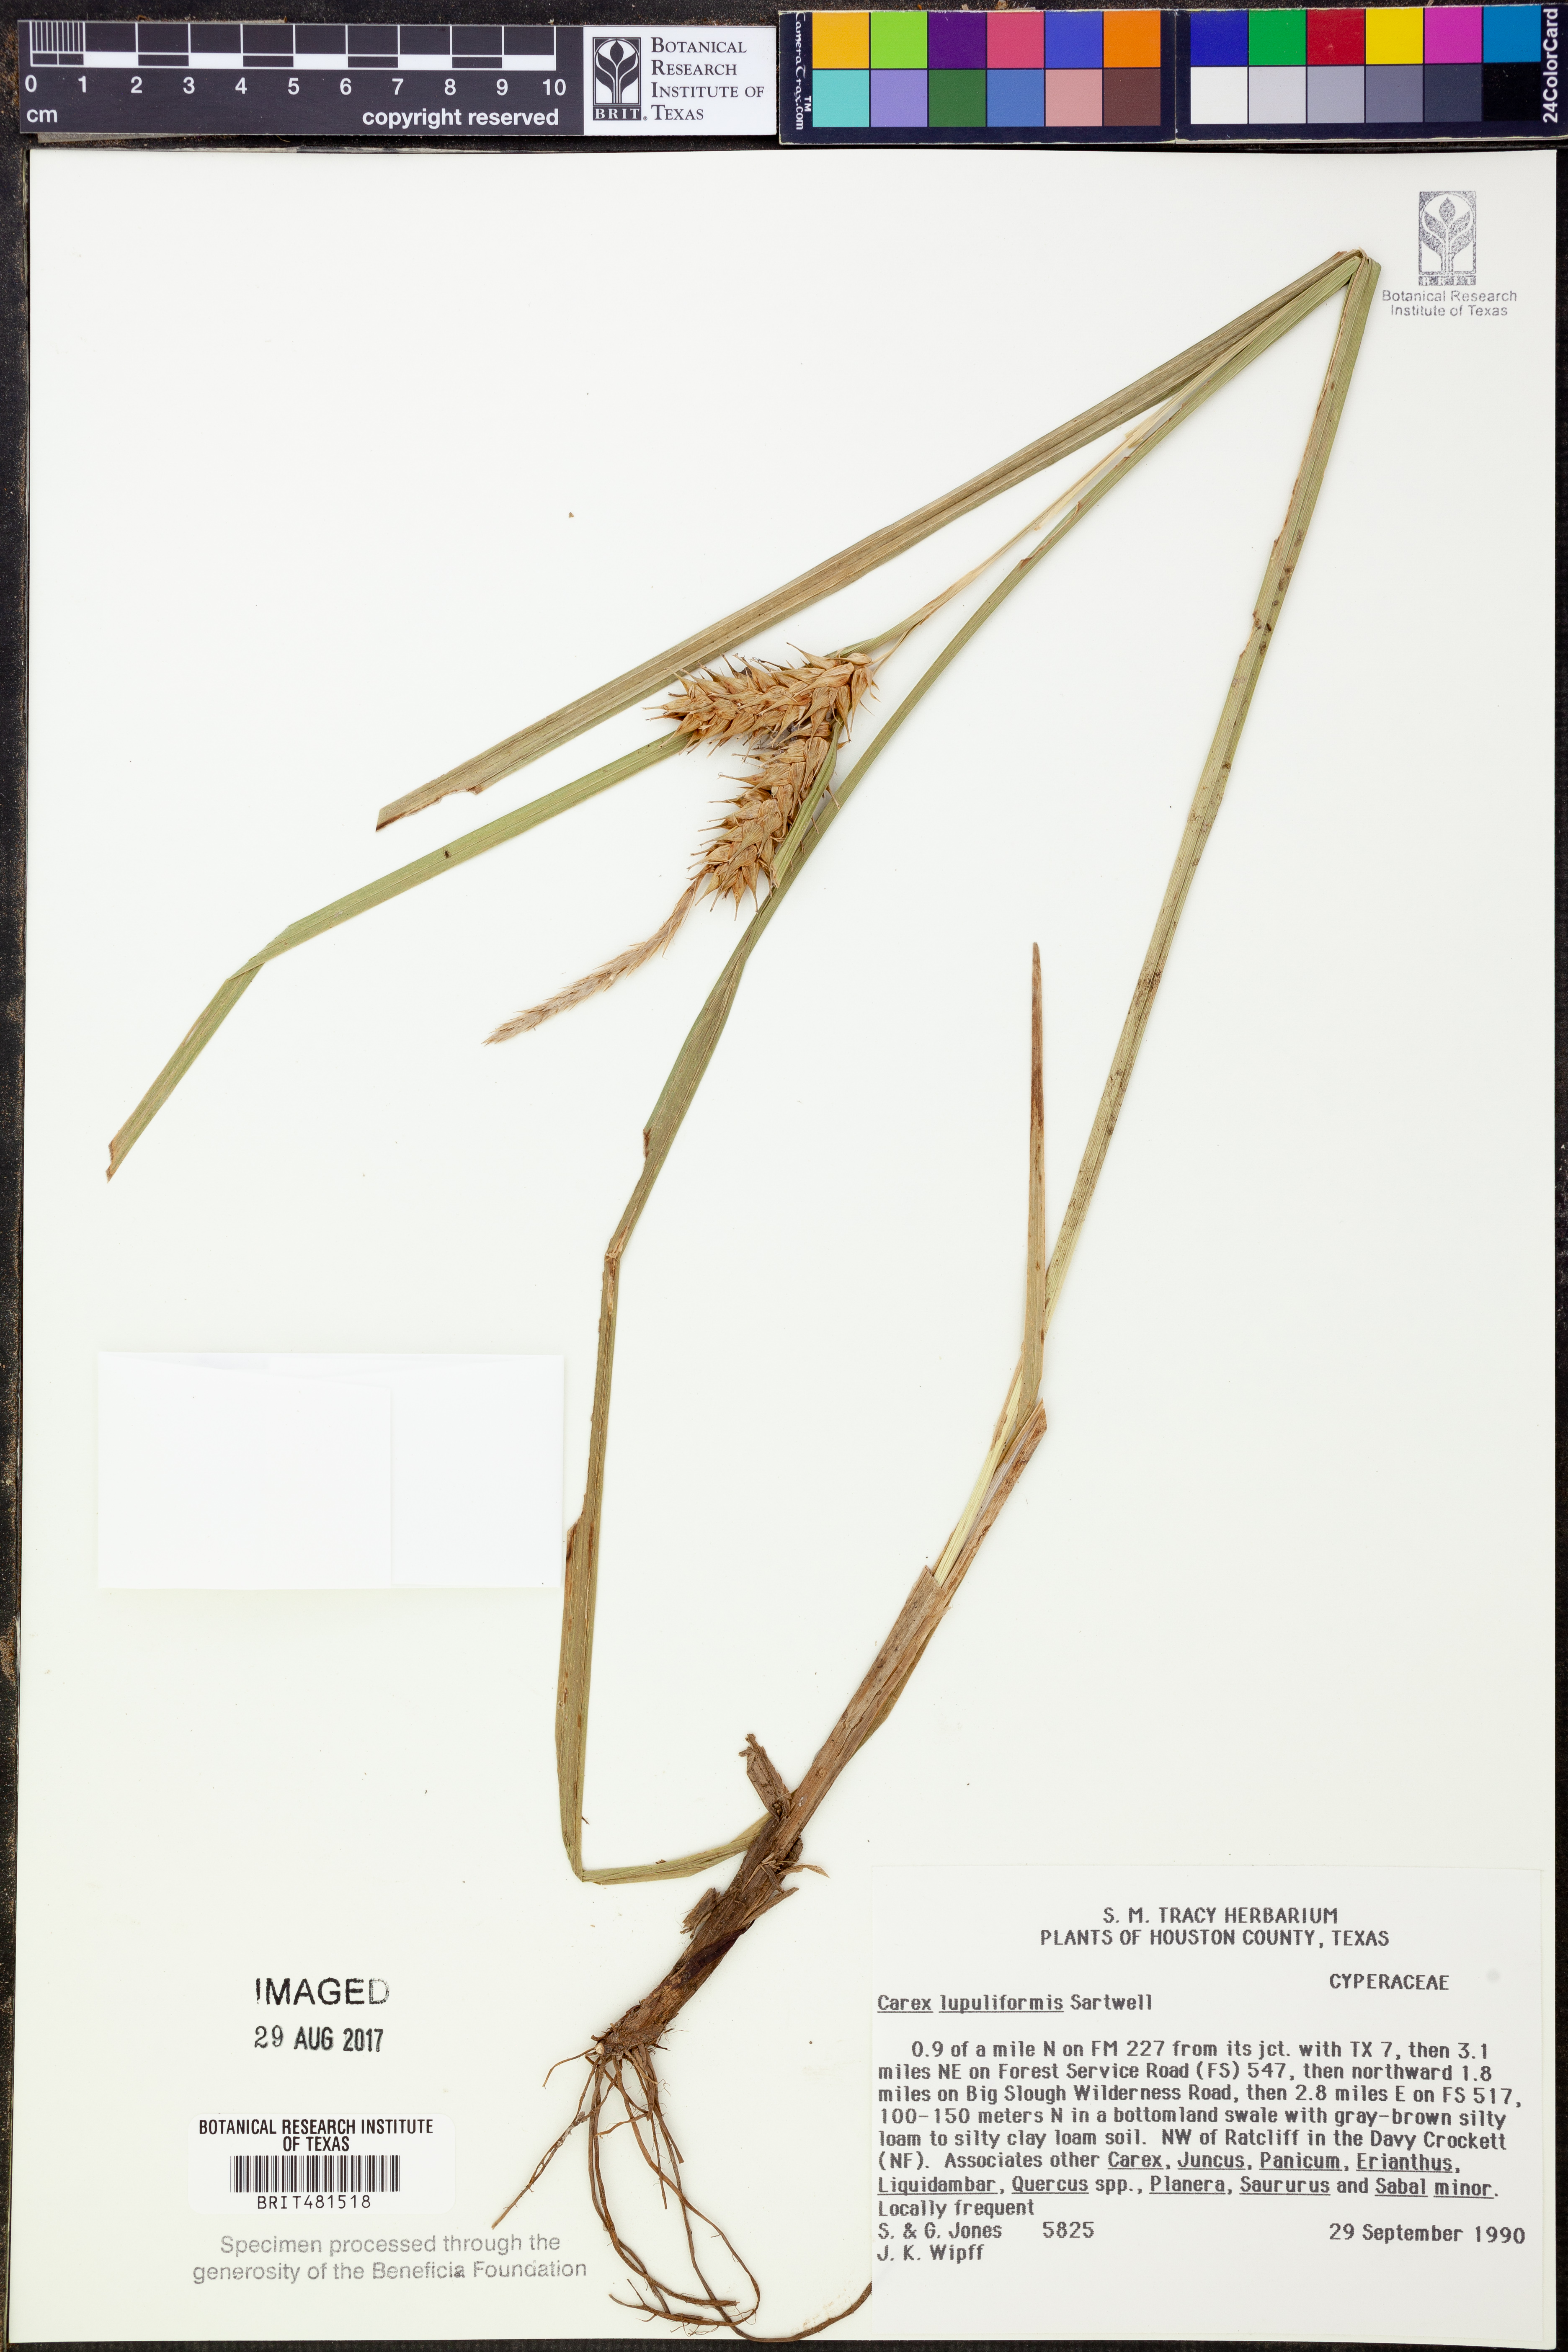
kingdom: Plantae
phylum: Tracheophyta
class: Liliopsida
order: Poales
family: Cyperaceae
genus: Carex
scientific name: Carex lupuliformis
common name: False hop sedge
